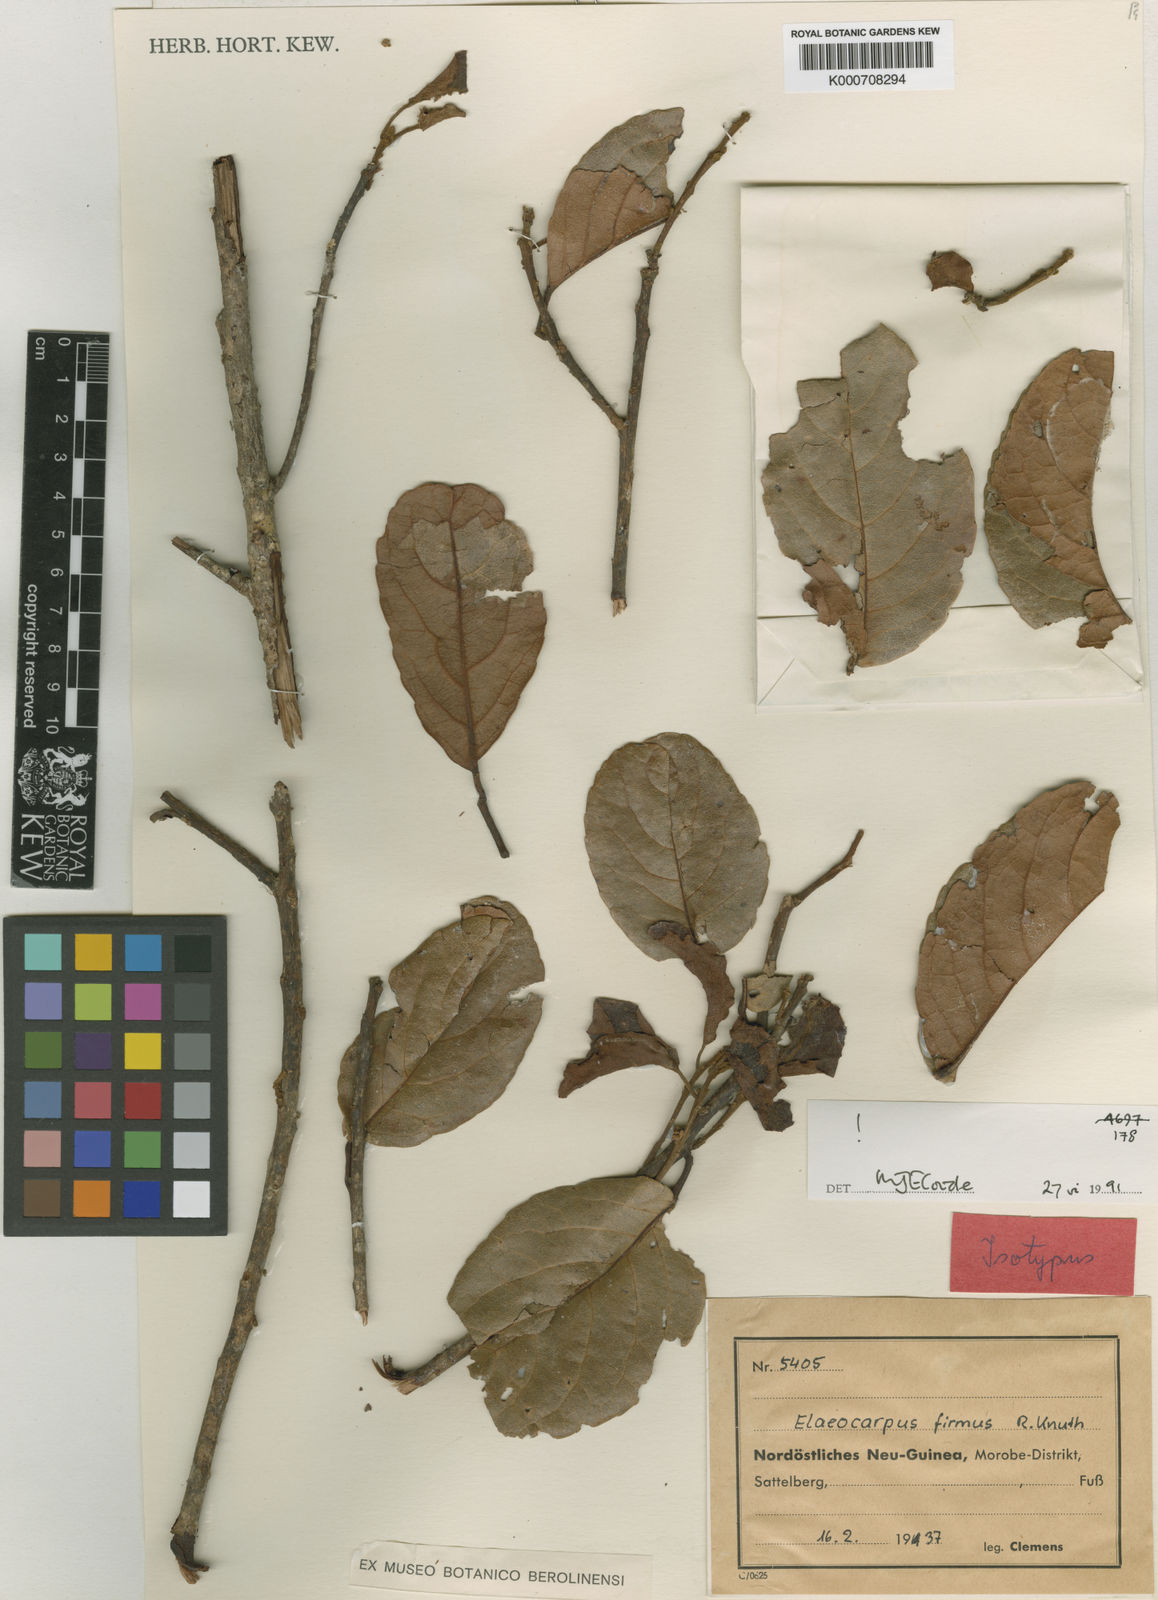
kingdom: Plantae
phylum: Tracheophyta
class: Magnoliopsida
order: Oxalidales
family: Elaeocarpaceae
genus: Elaeocarpus
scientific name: Elaeocarpus firmus
